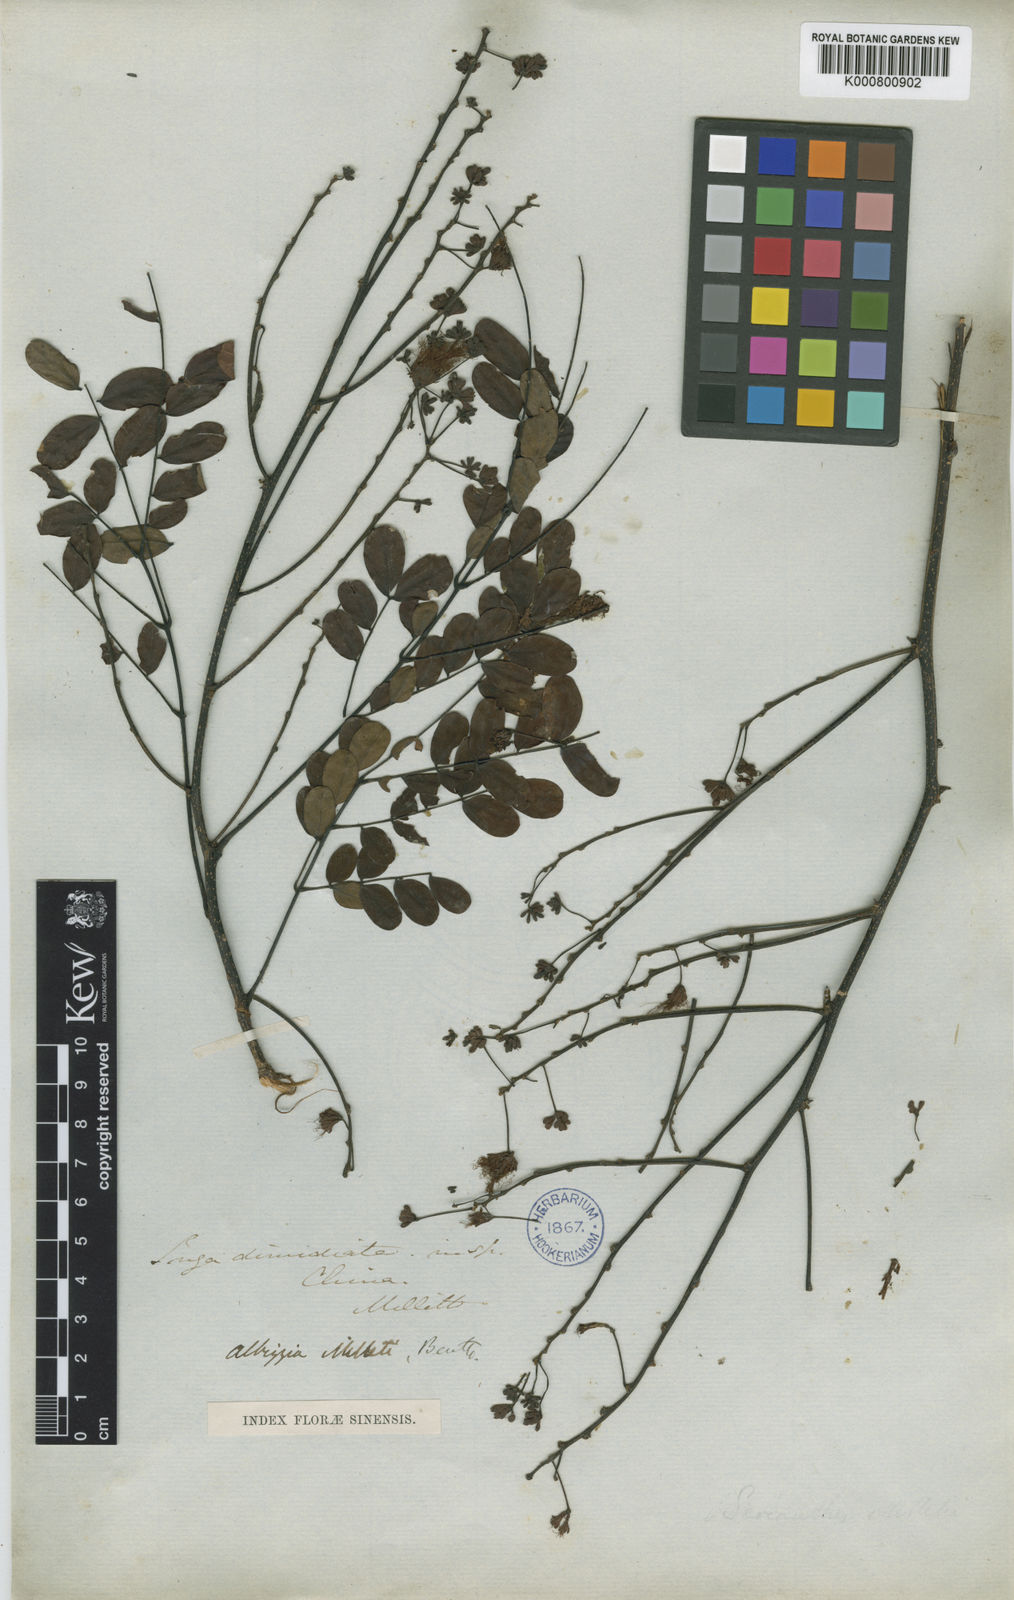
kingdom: Plantae
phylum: Tracheophyta
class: Magnoliopsida
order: Fabales
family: Fabaceae
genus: Albizia
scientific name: Albizia corniculata
